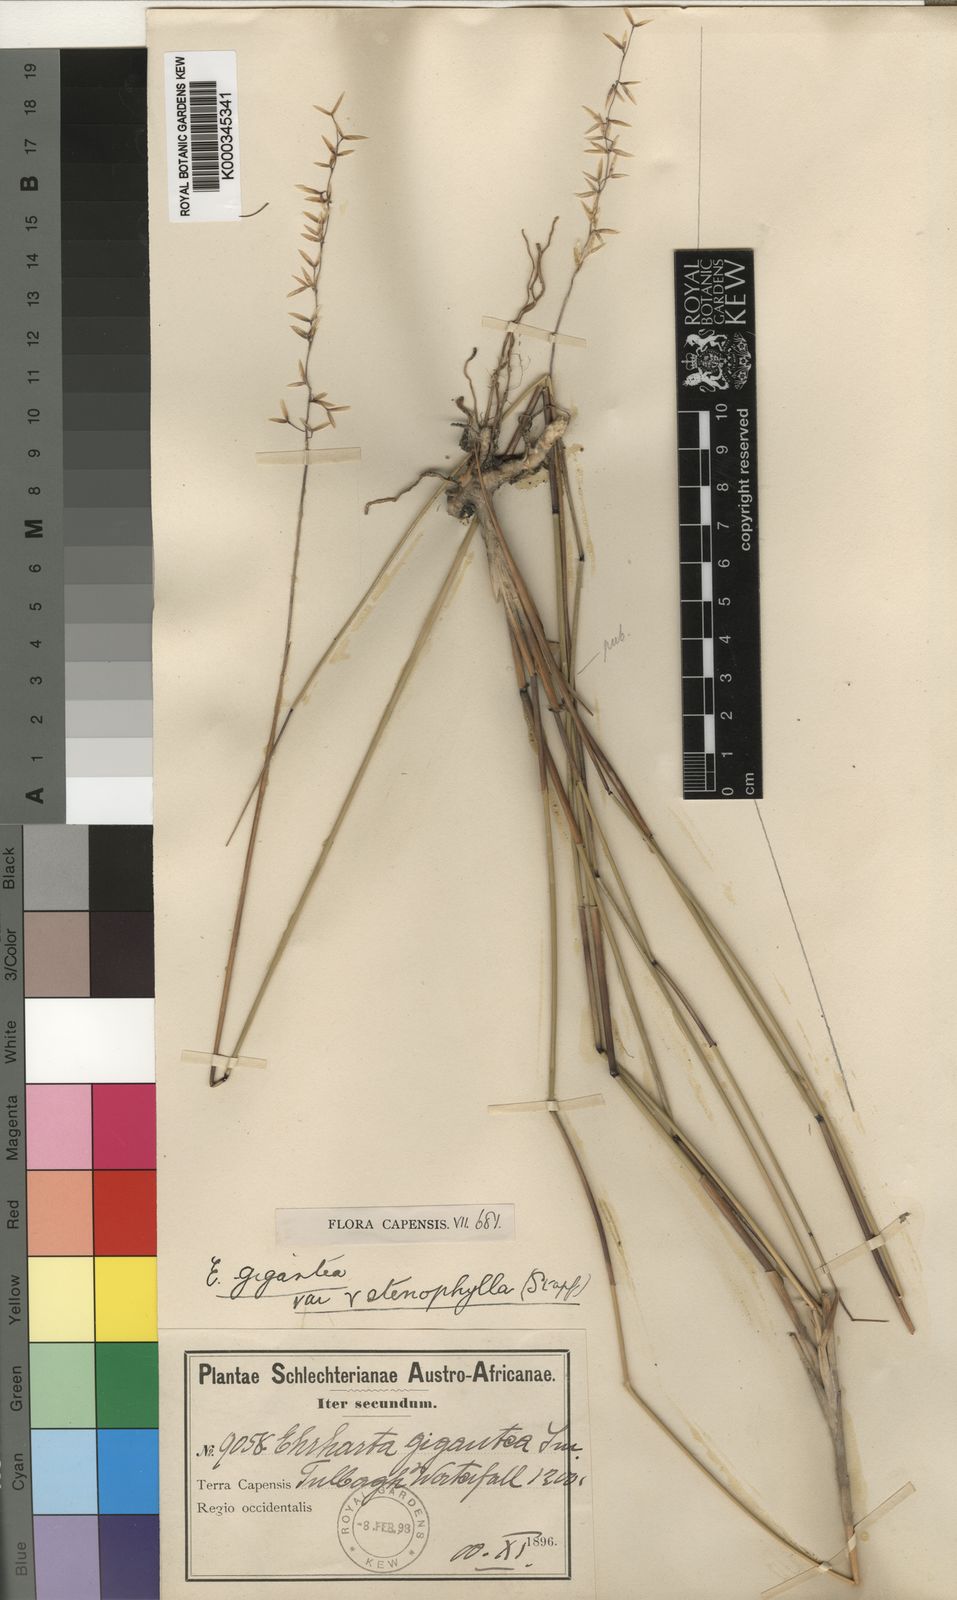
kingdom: Plantae
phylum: Tracheophyta
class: Liliopsida
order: Poales
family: Poaceae
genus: Ehrharta
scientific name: Ehrharta thunbergii
